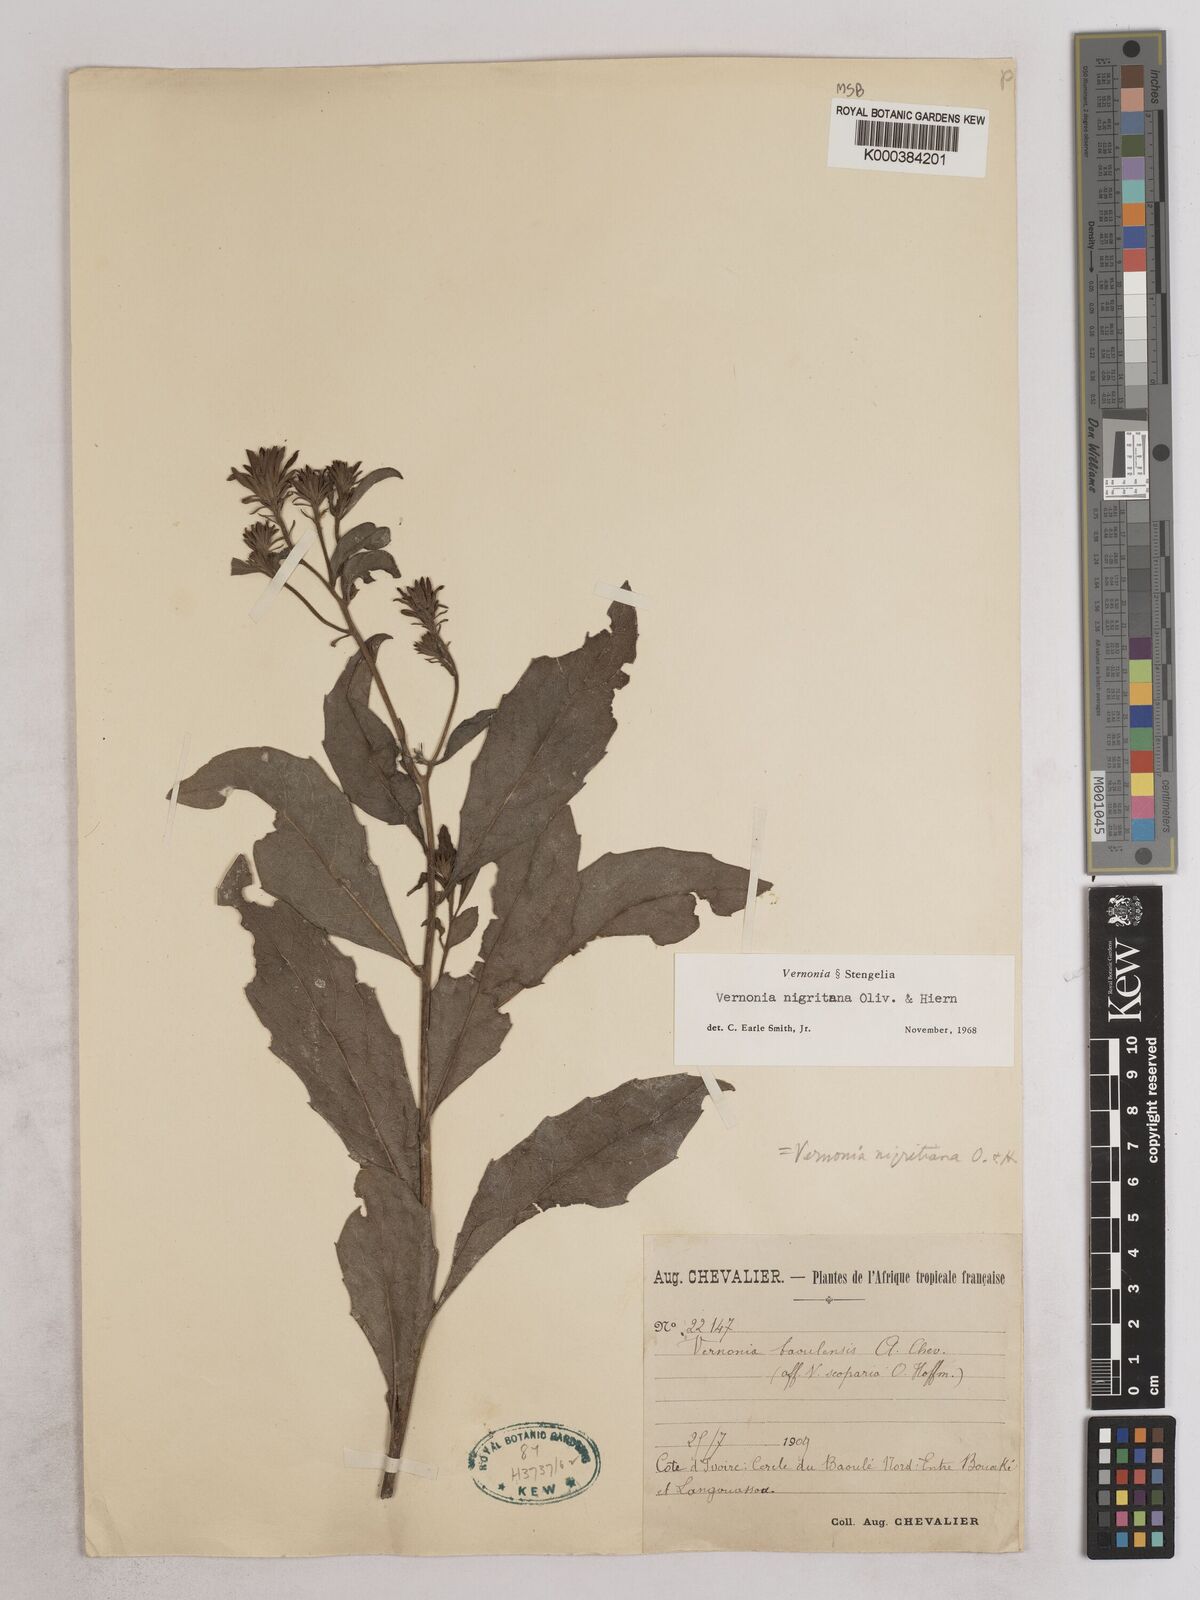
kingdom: Plantae
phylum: Tracheophyta
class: Magnoliopsida
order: Asterales
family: Asteraceae
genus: Linzia
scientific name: Linzia nigritiana
